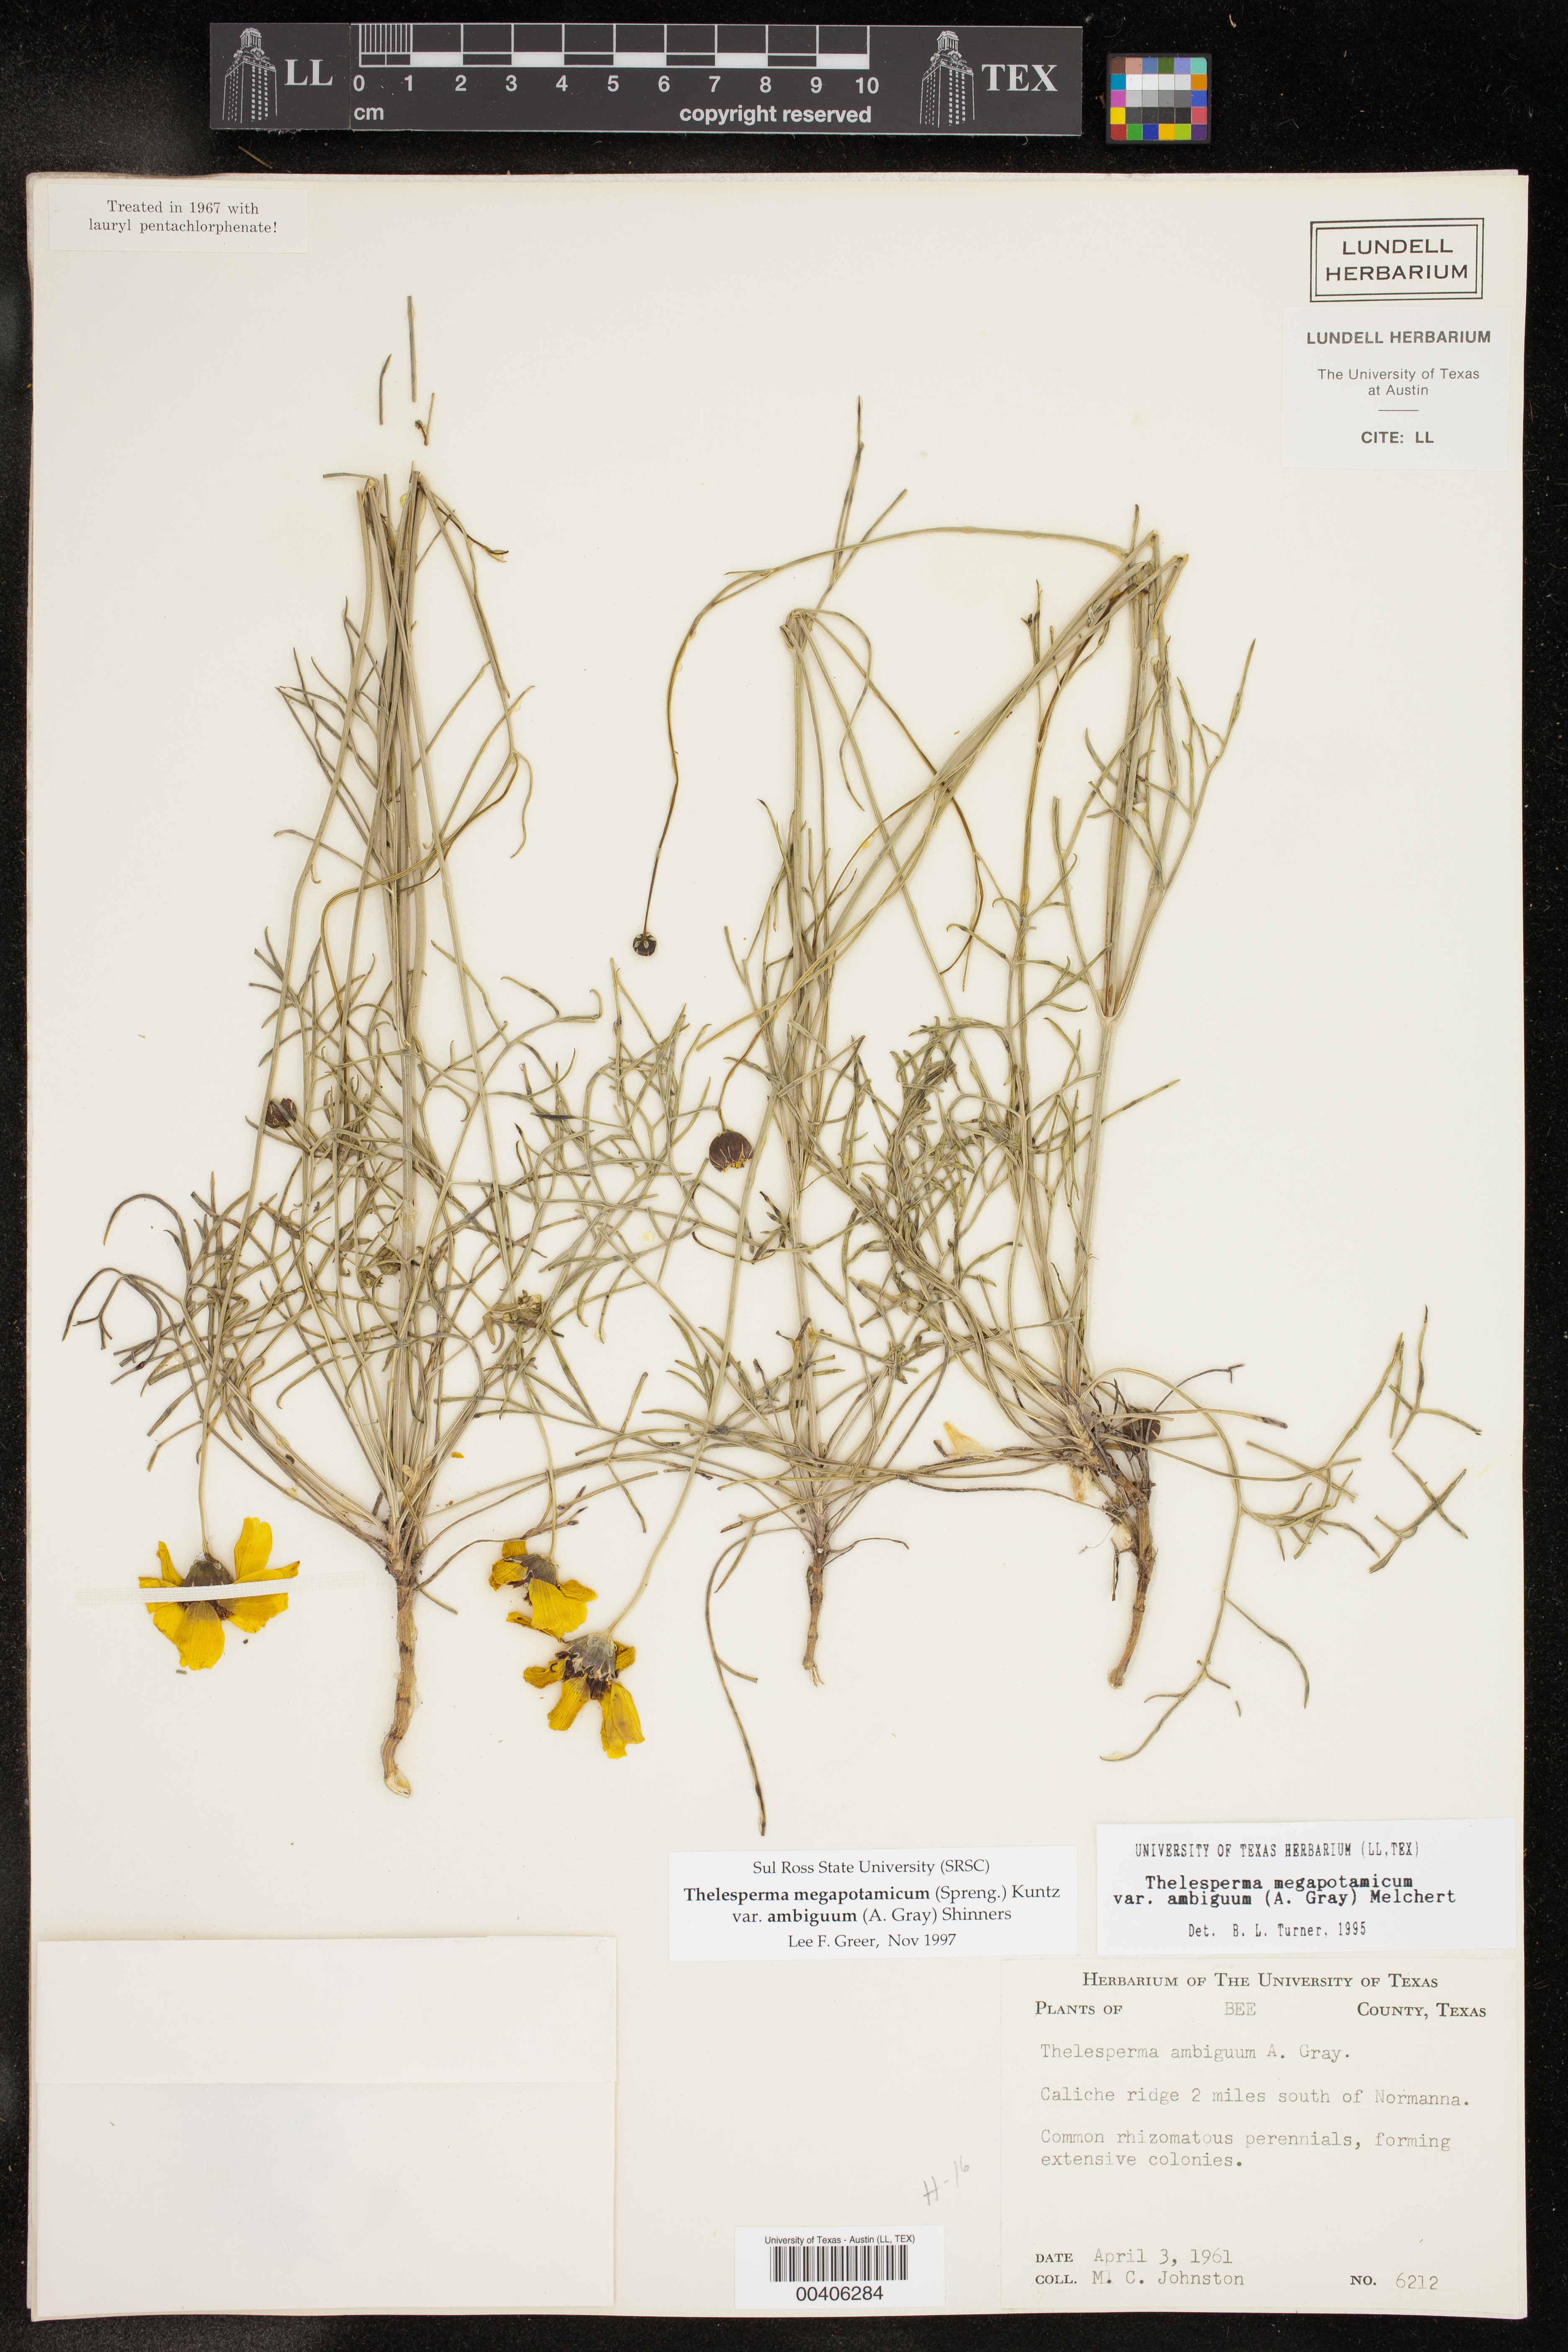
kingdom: Plantae
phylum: Tracheophyta
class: Magnoliopsida
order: Asterales
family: Asteraceae
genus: Thelesperma
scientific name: Thelesperma ambiguum
